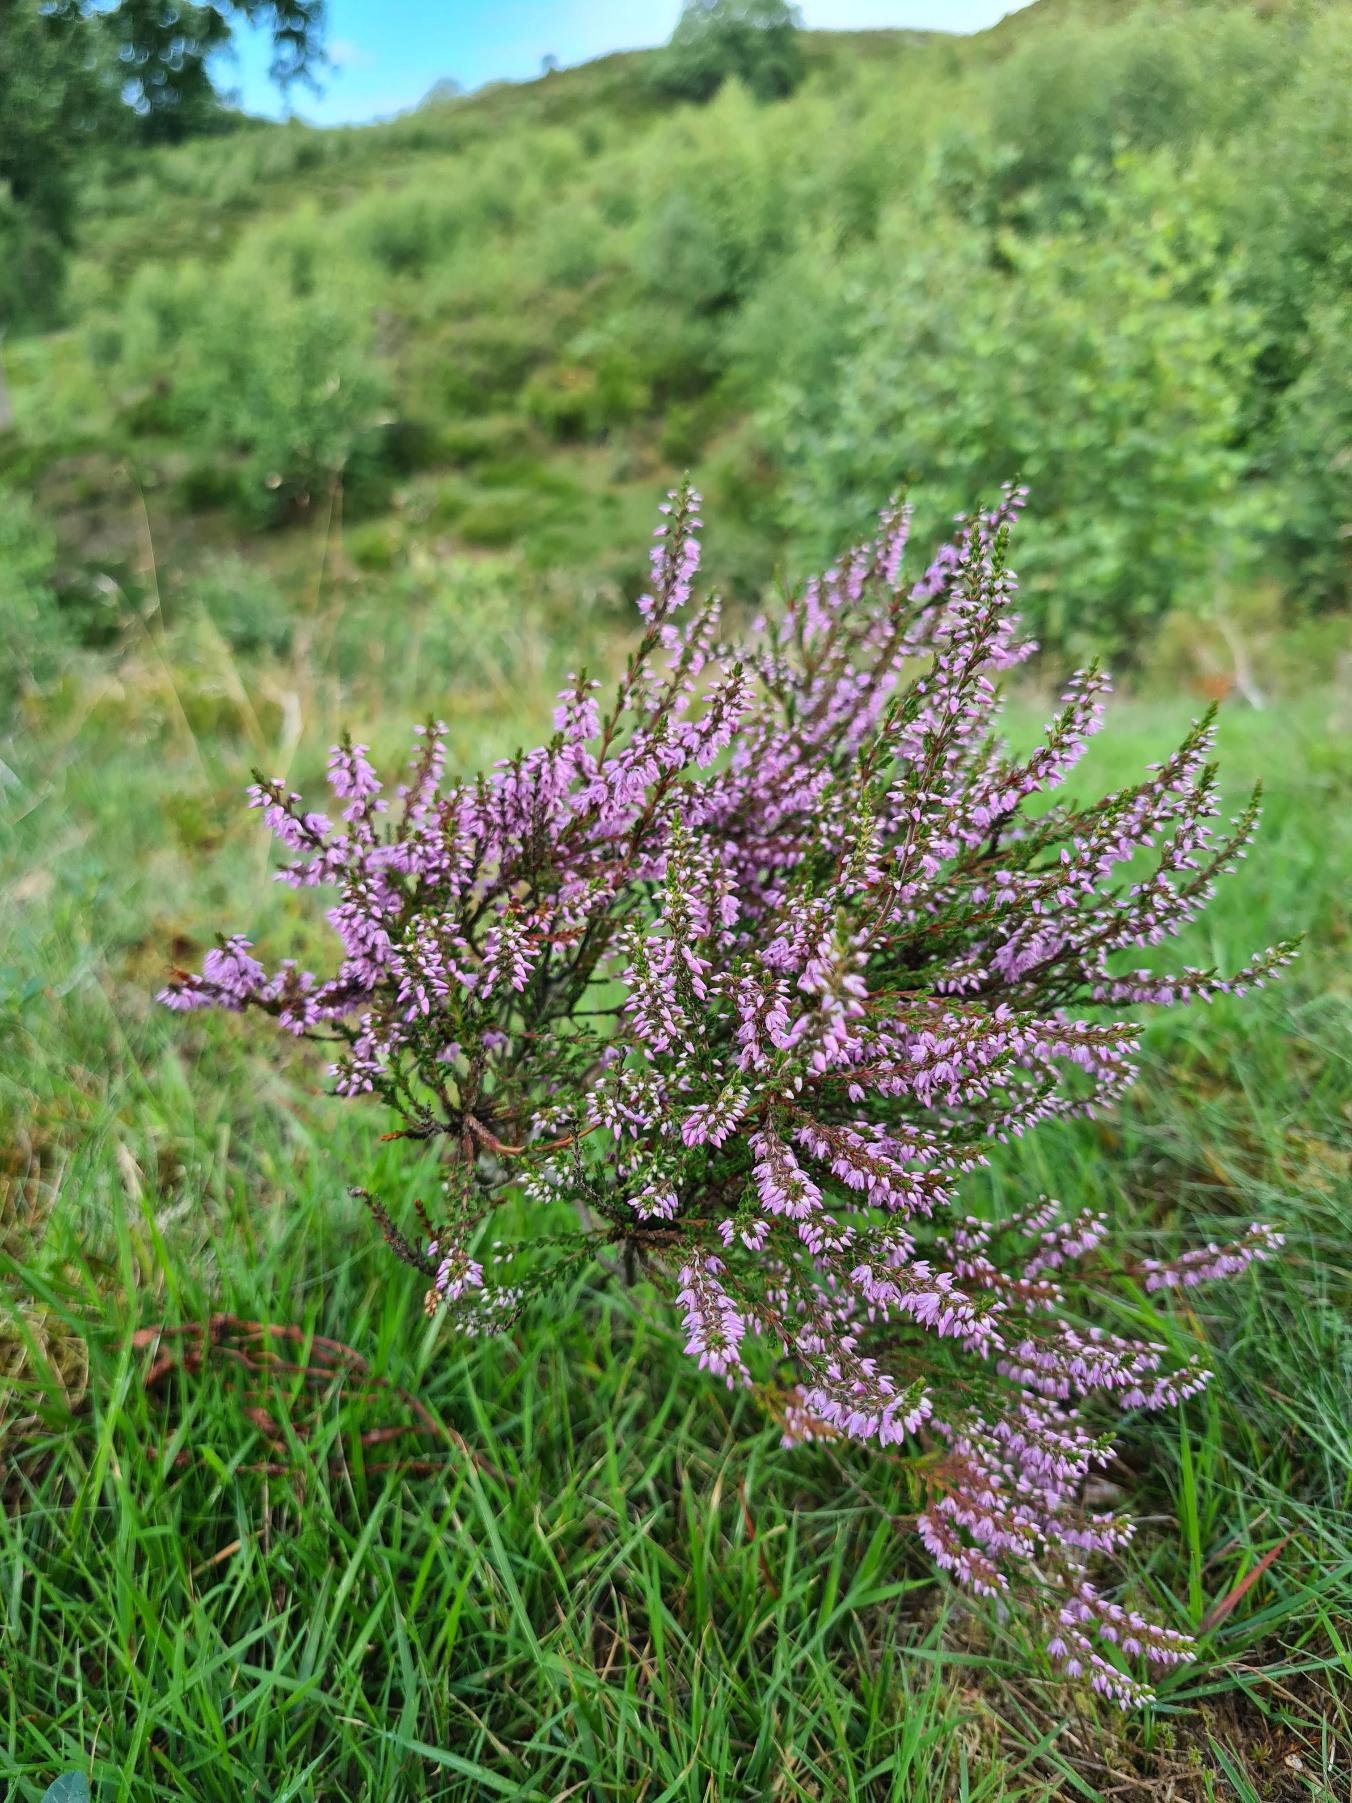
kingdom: Plantae
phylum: Tracheophyta
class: Magnoliopsida
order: Ericales
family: Ericaceae
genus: Calluna
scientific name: Calluna vulgaris
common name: Hedelyng
